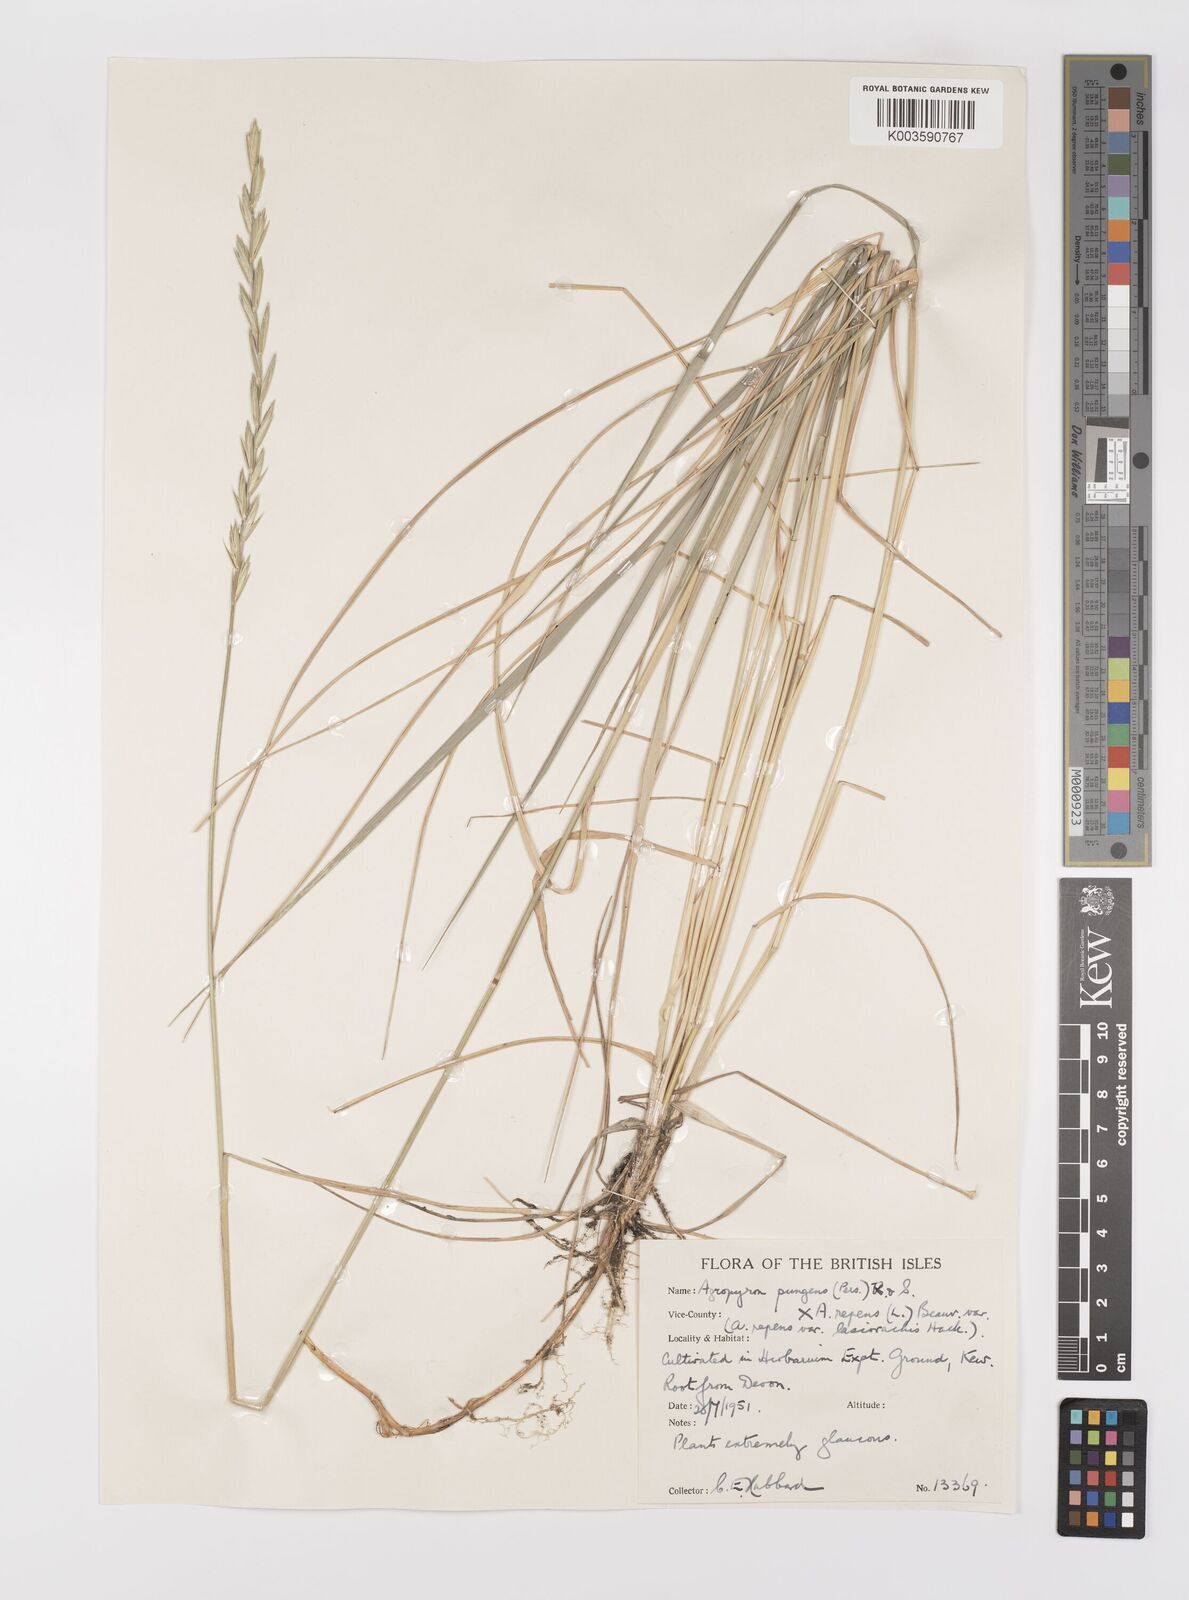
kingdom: Plantae
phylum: Tracheophyta
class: Liliopsida
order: Poales
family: Poaceae
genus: Elymus
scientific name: Elymus athericus
